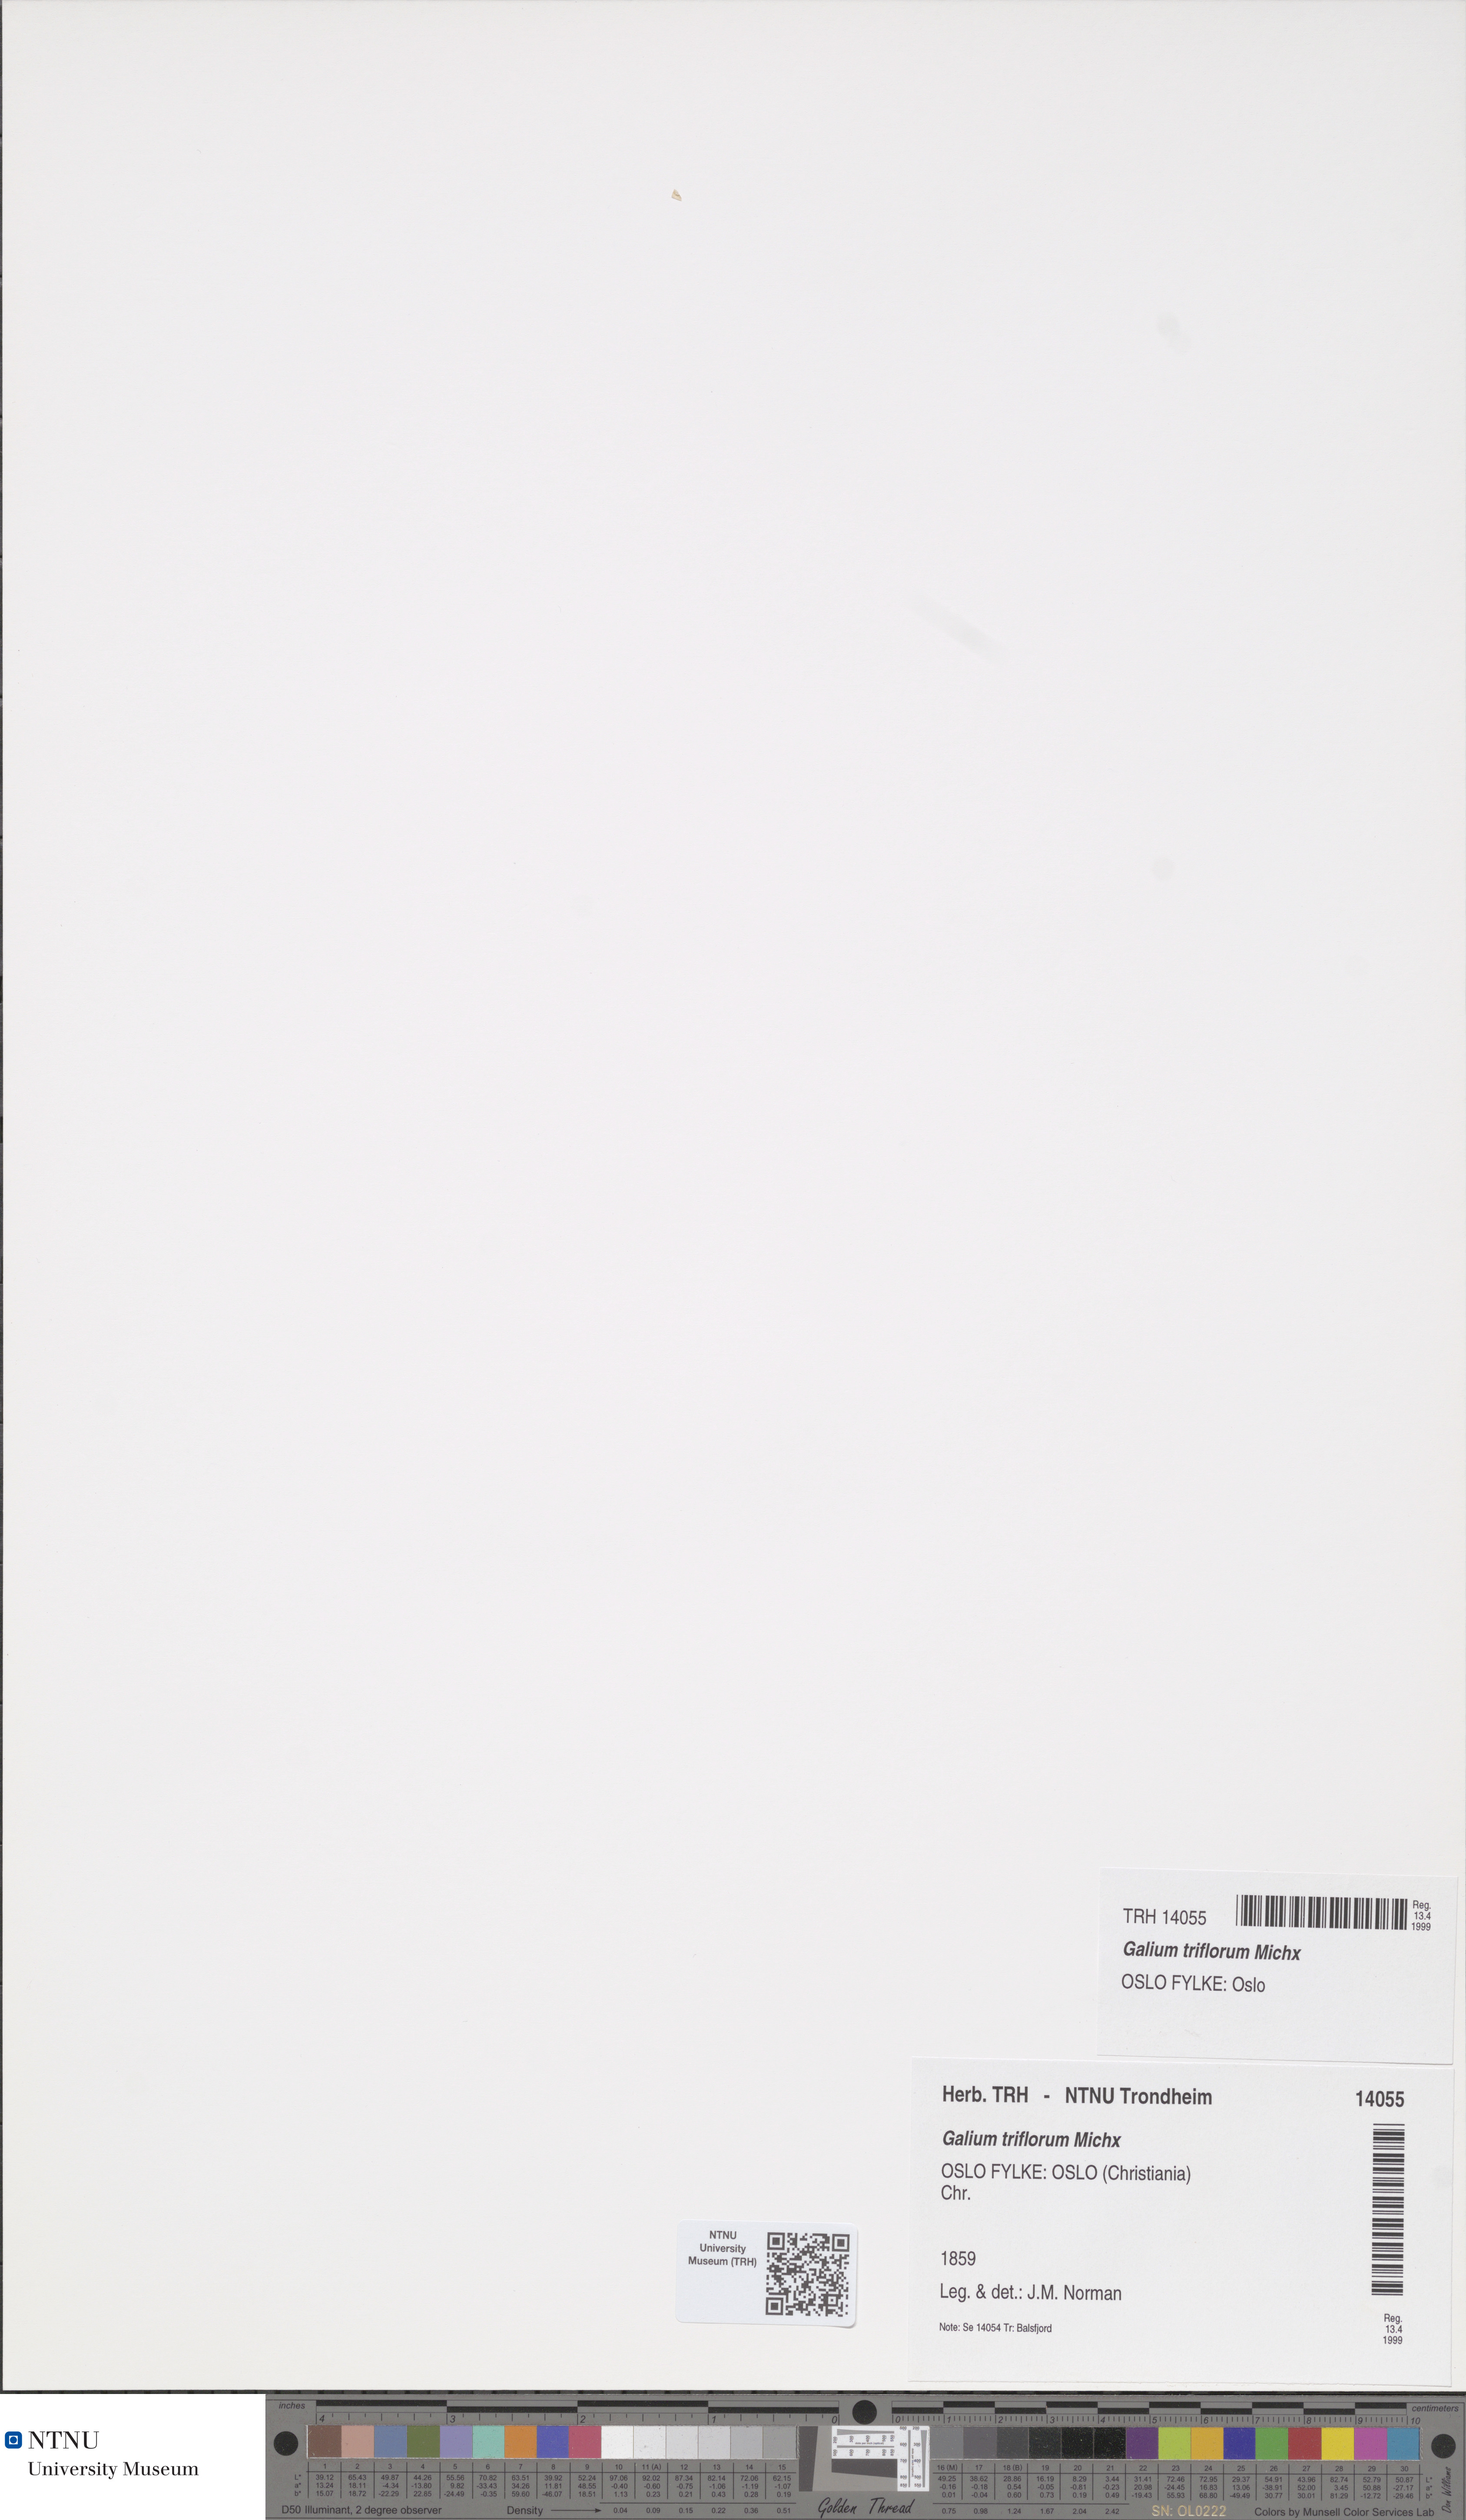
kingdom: Plantae
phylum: Tracheophyta
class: Magnoliopsida
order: Gentianales
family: Rubiaceae
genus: Galium
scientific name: Galium triflorum
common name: Fragrant bedstraw
